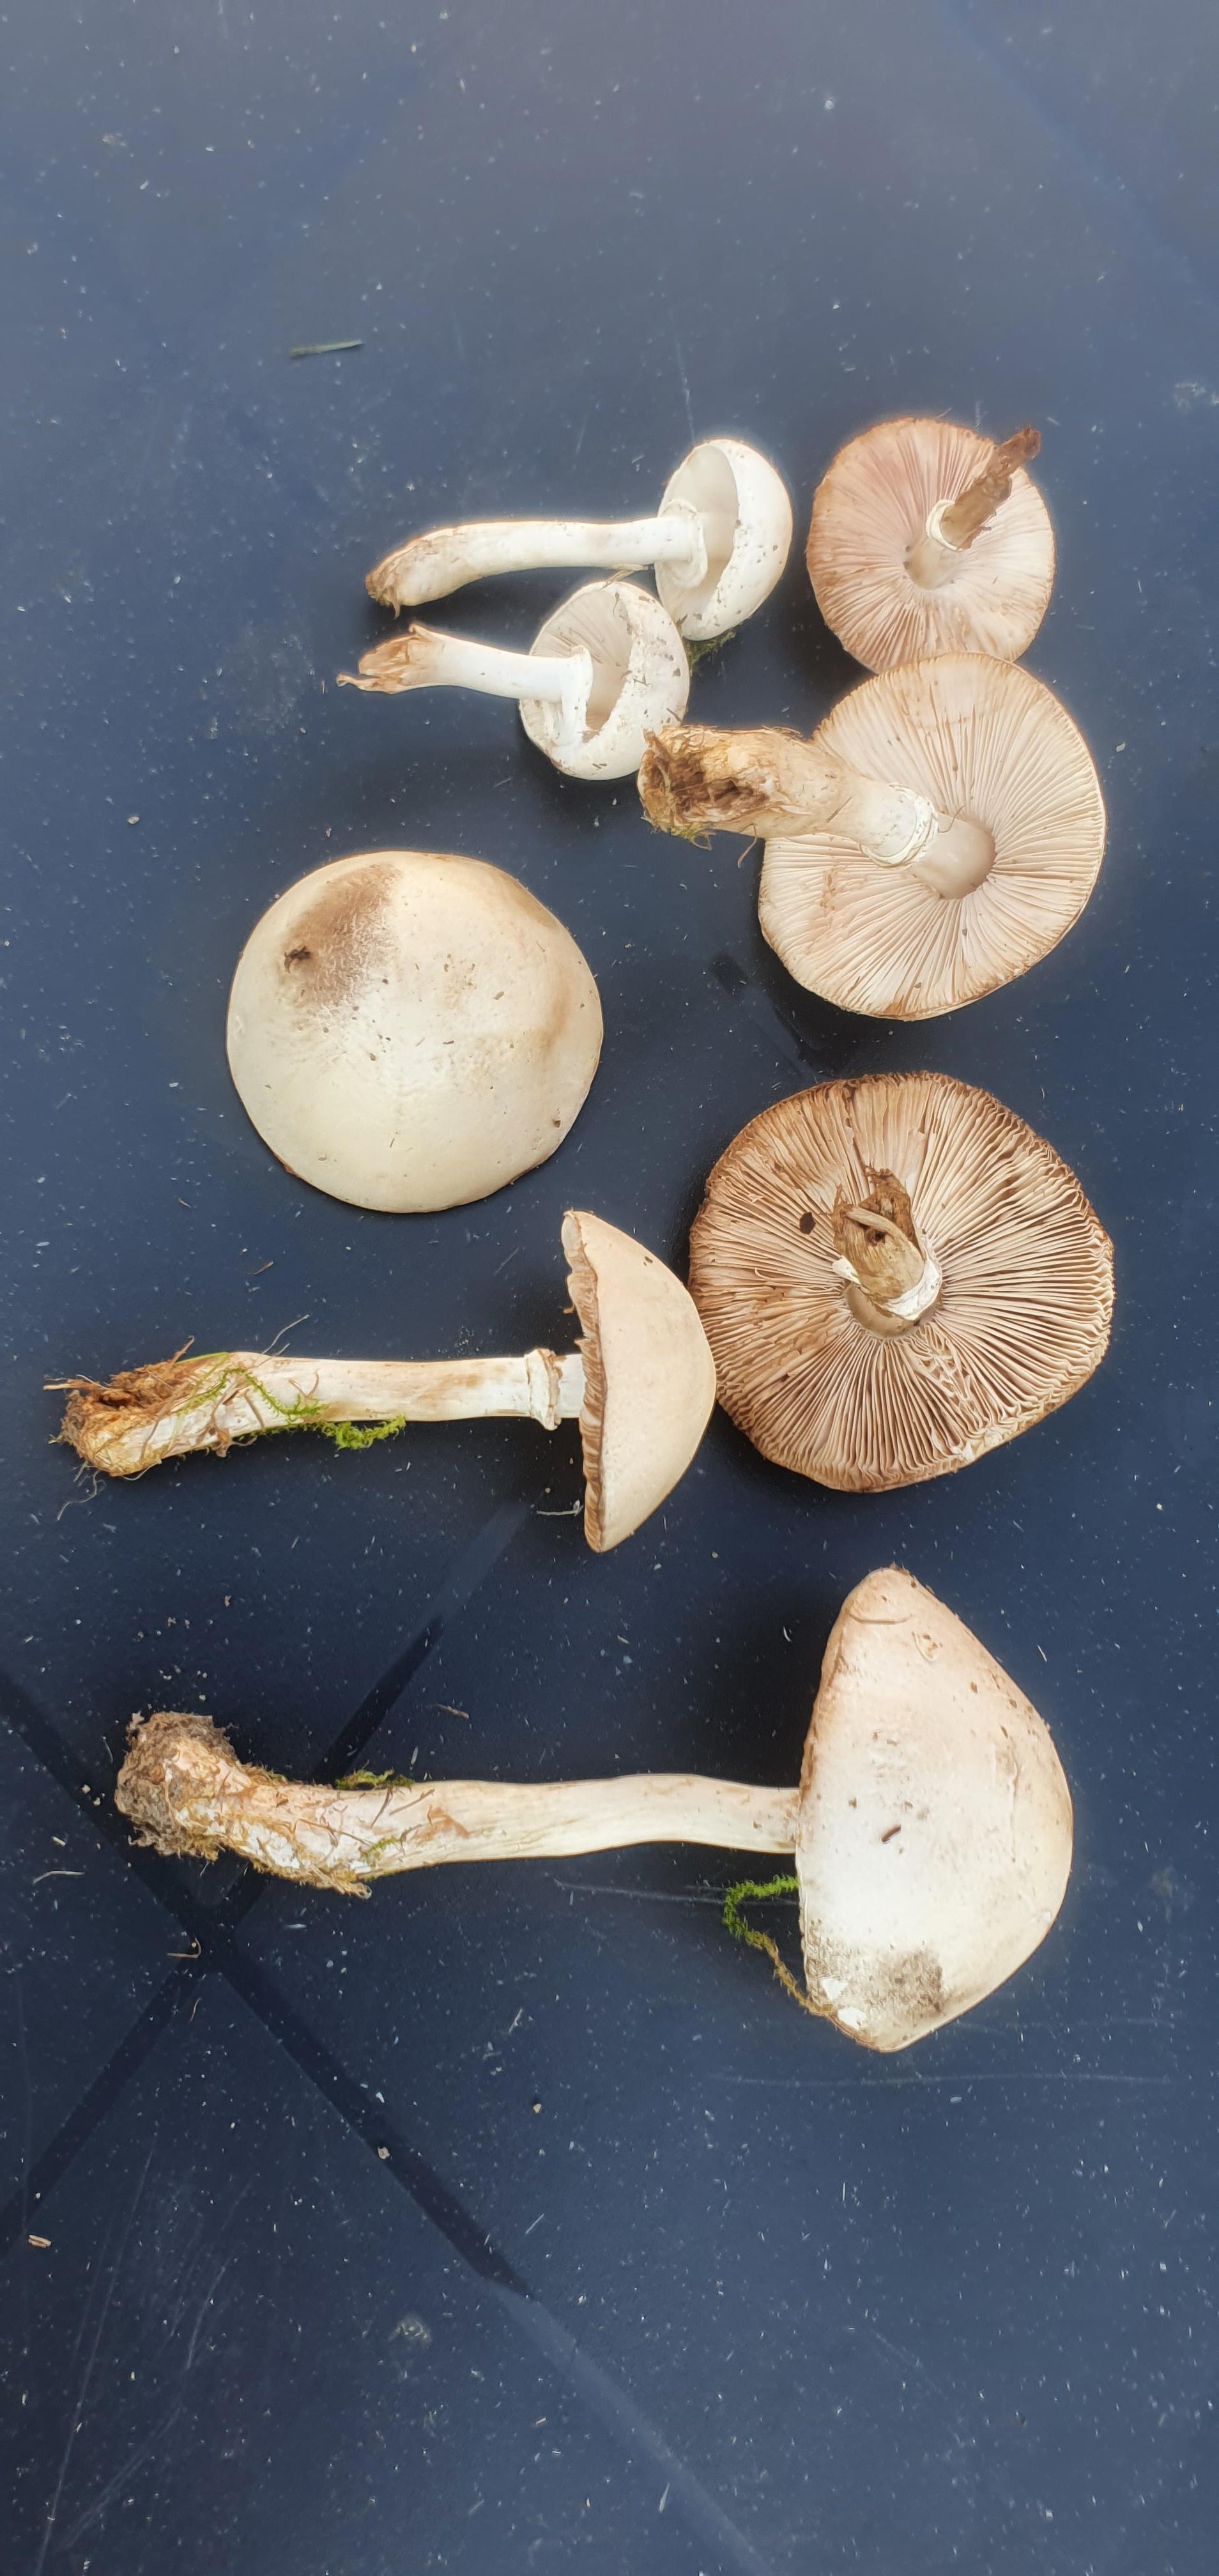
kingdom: Fungi
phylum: Basidiomycota
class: Agaricomycetes
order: Agaricales
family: Agaricaceae
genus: Leucoagaricus
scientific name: Leucoagaricus leucothites
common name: rosabladet silkehat
